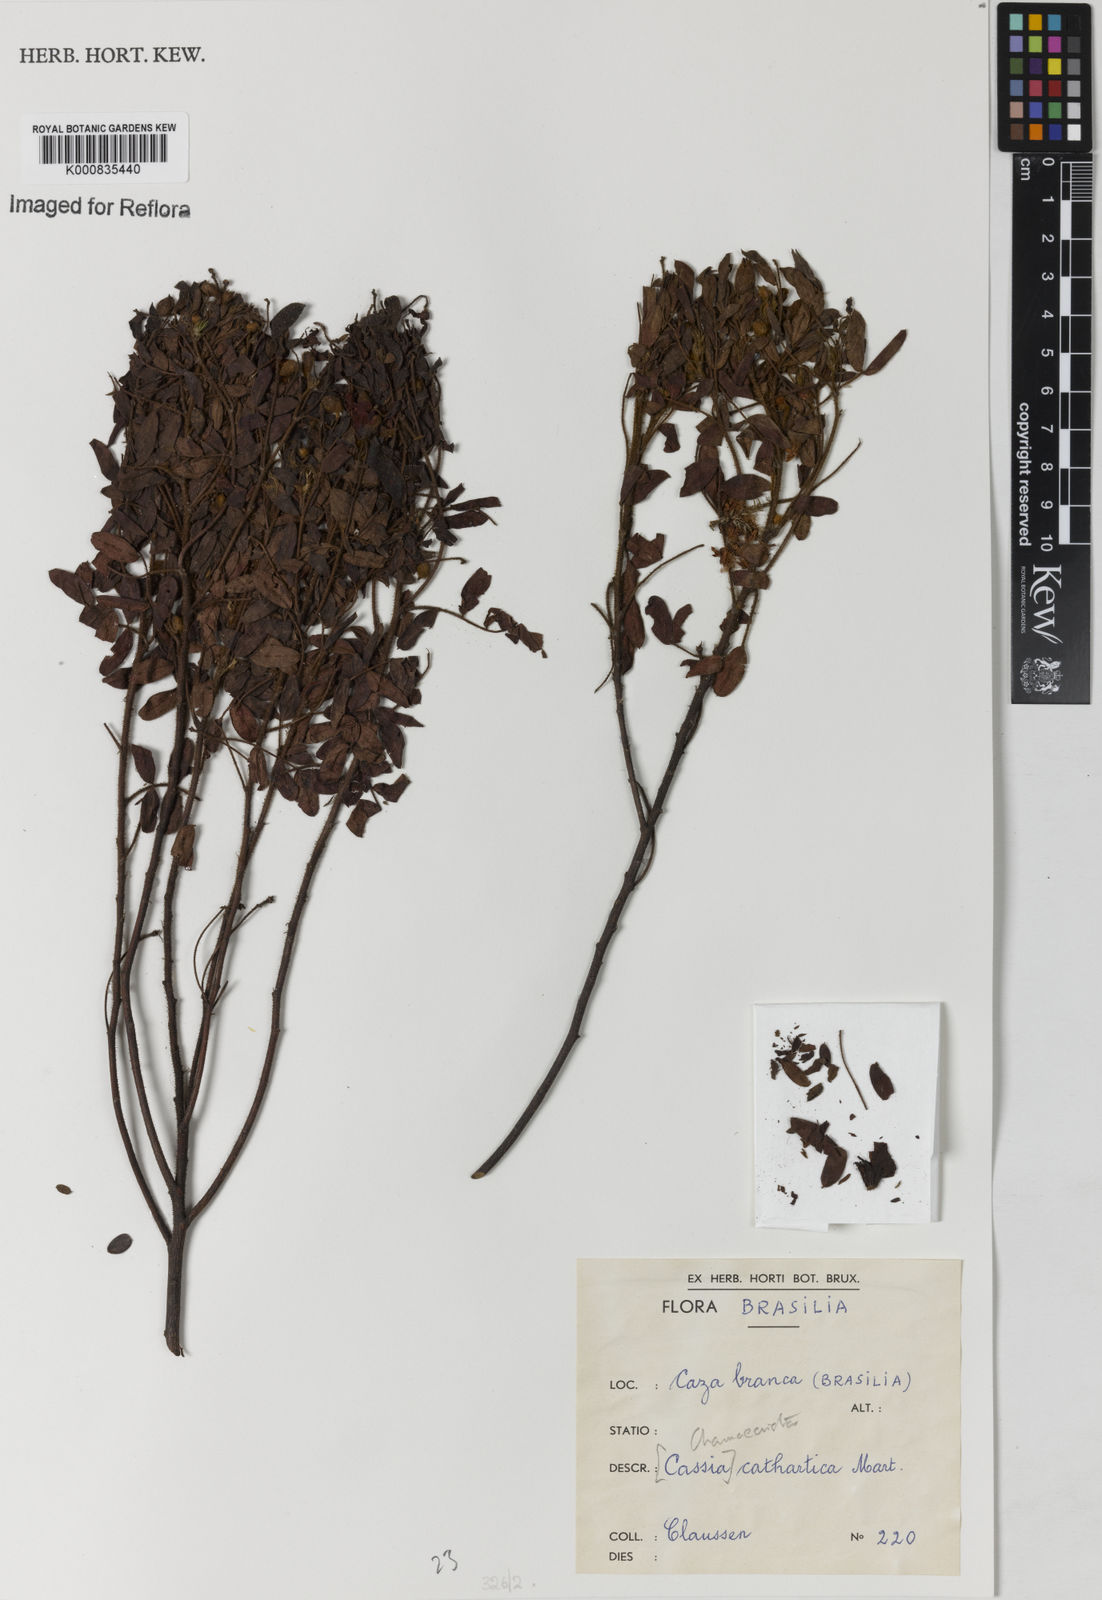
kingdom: Plantae
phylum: Tracheophyta
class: Magnoliopsida
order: Fabales
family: Fabaceae
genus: Chamaecrista
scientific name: Chamaecrista cathartica
